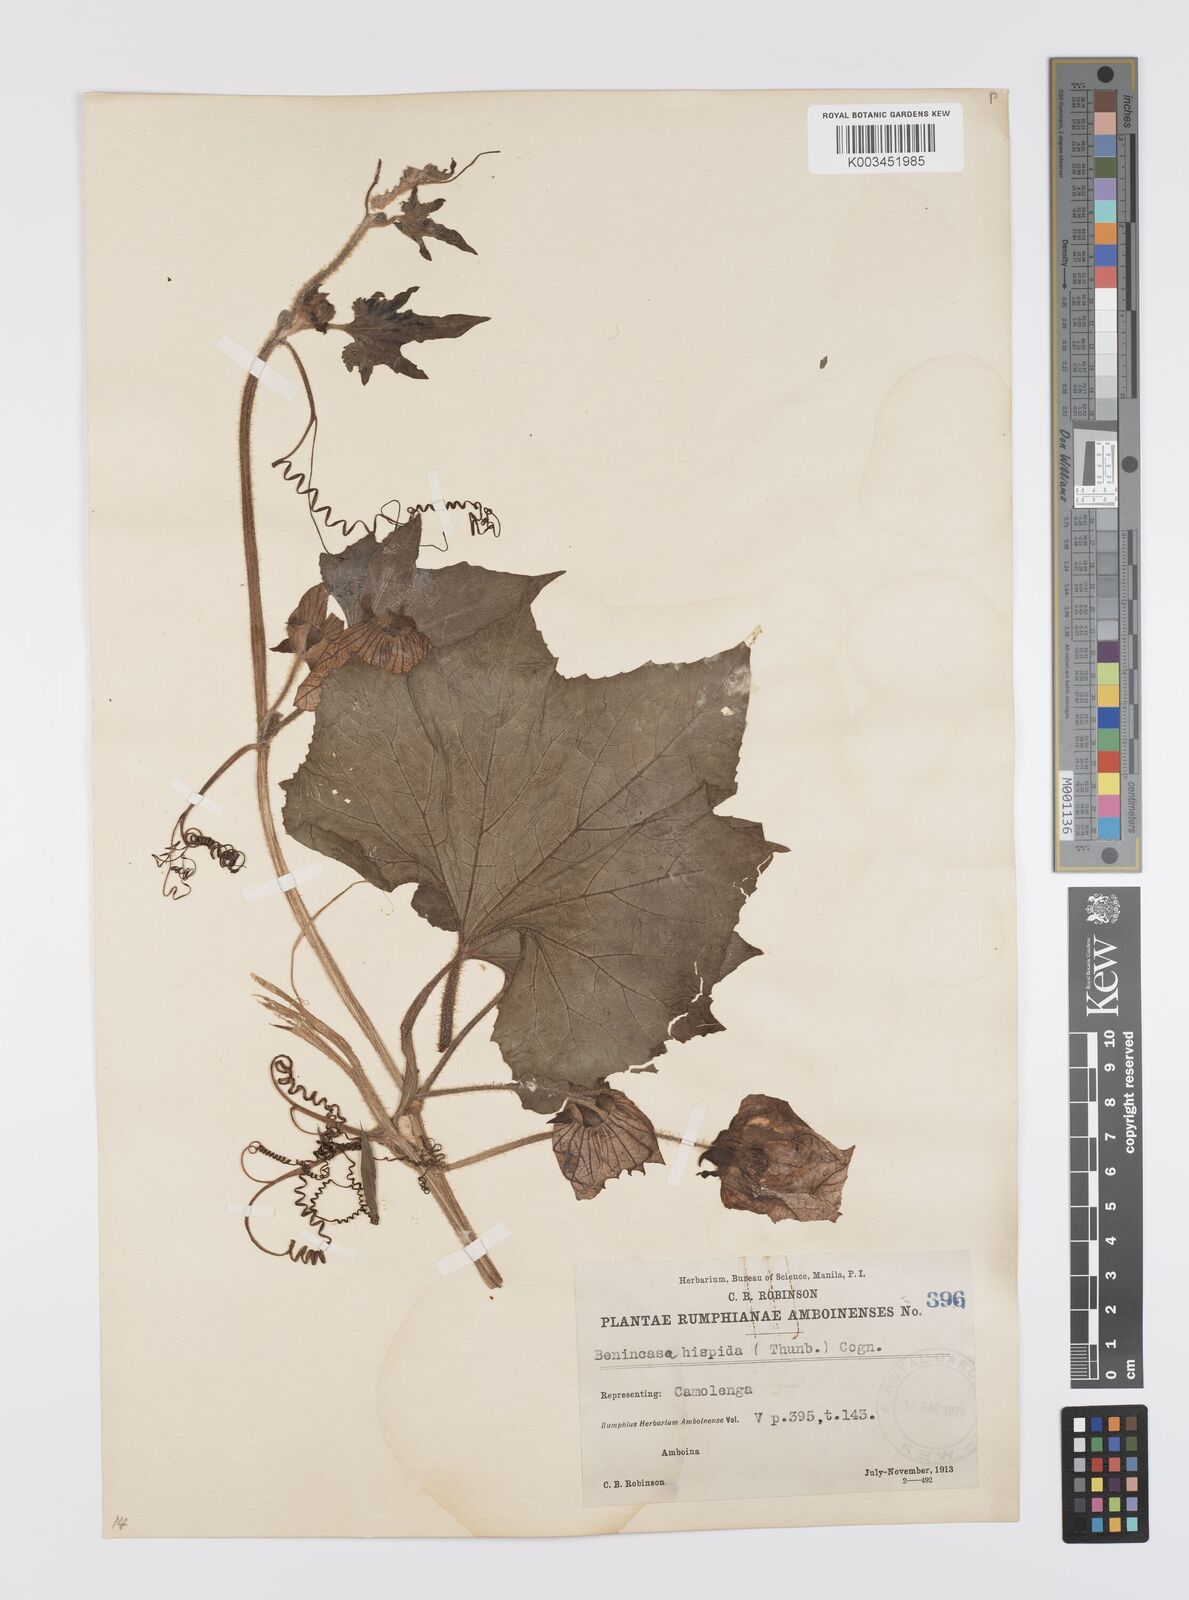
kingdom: Plantae
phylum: Tracheophyta
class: Magnoliopsida
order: Cucurbitales
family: Cucurbitaceae
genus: Benincasa
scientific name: Benincasa hispida
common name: Chinese-watermelon
